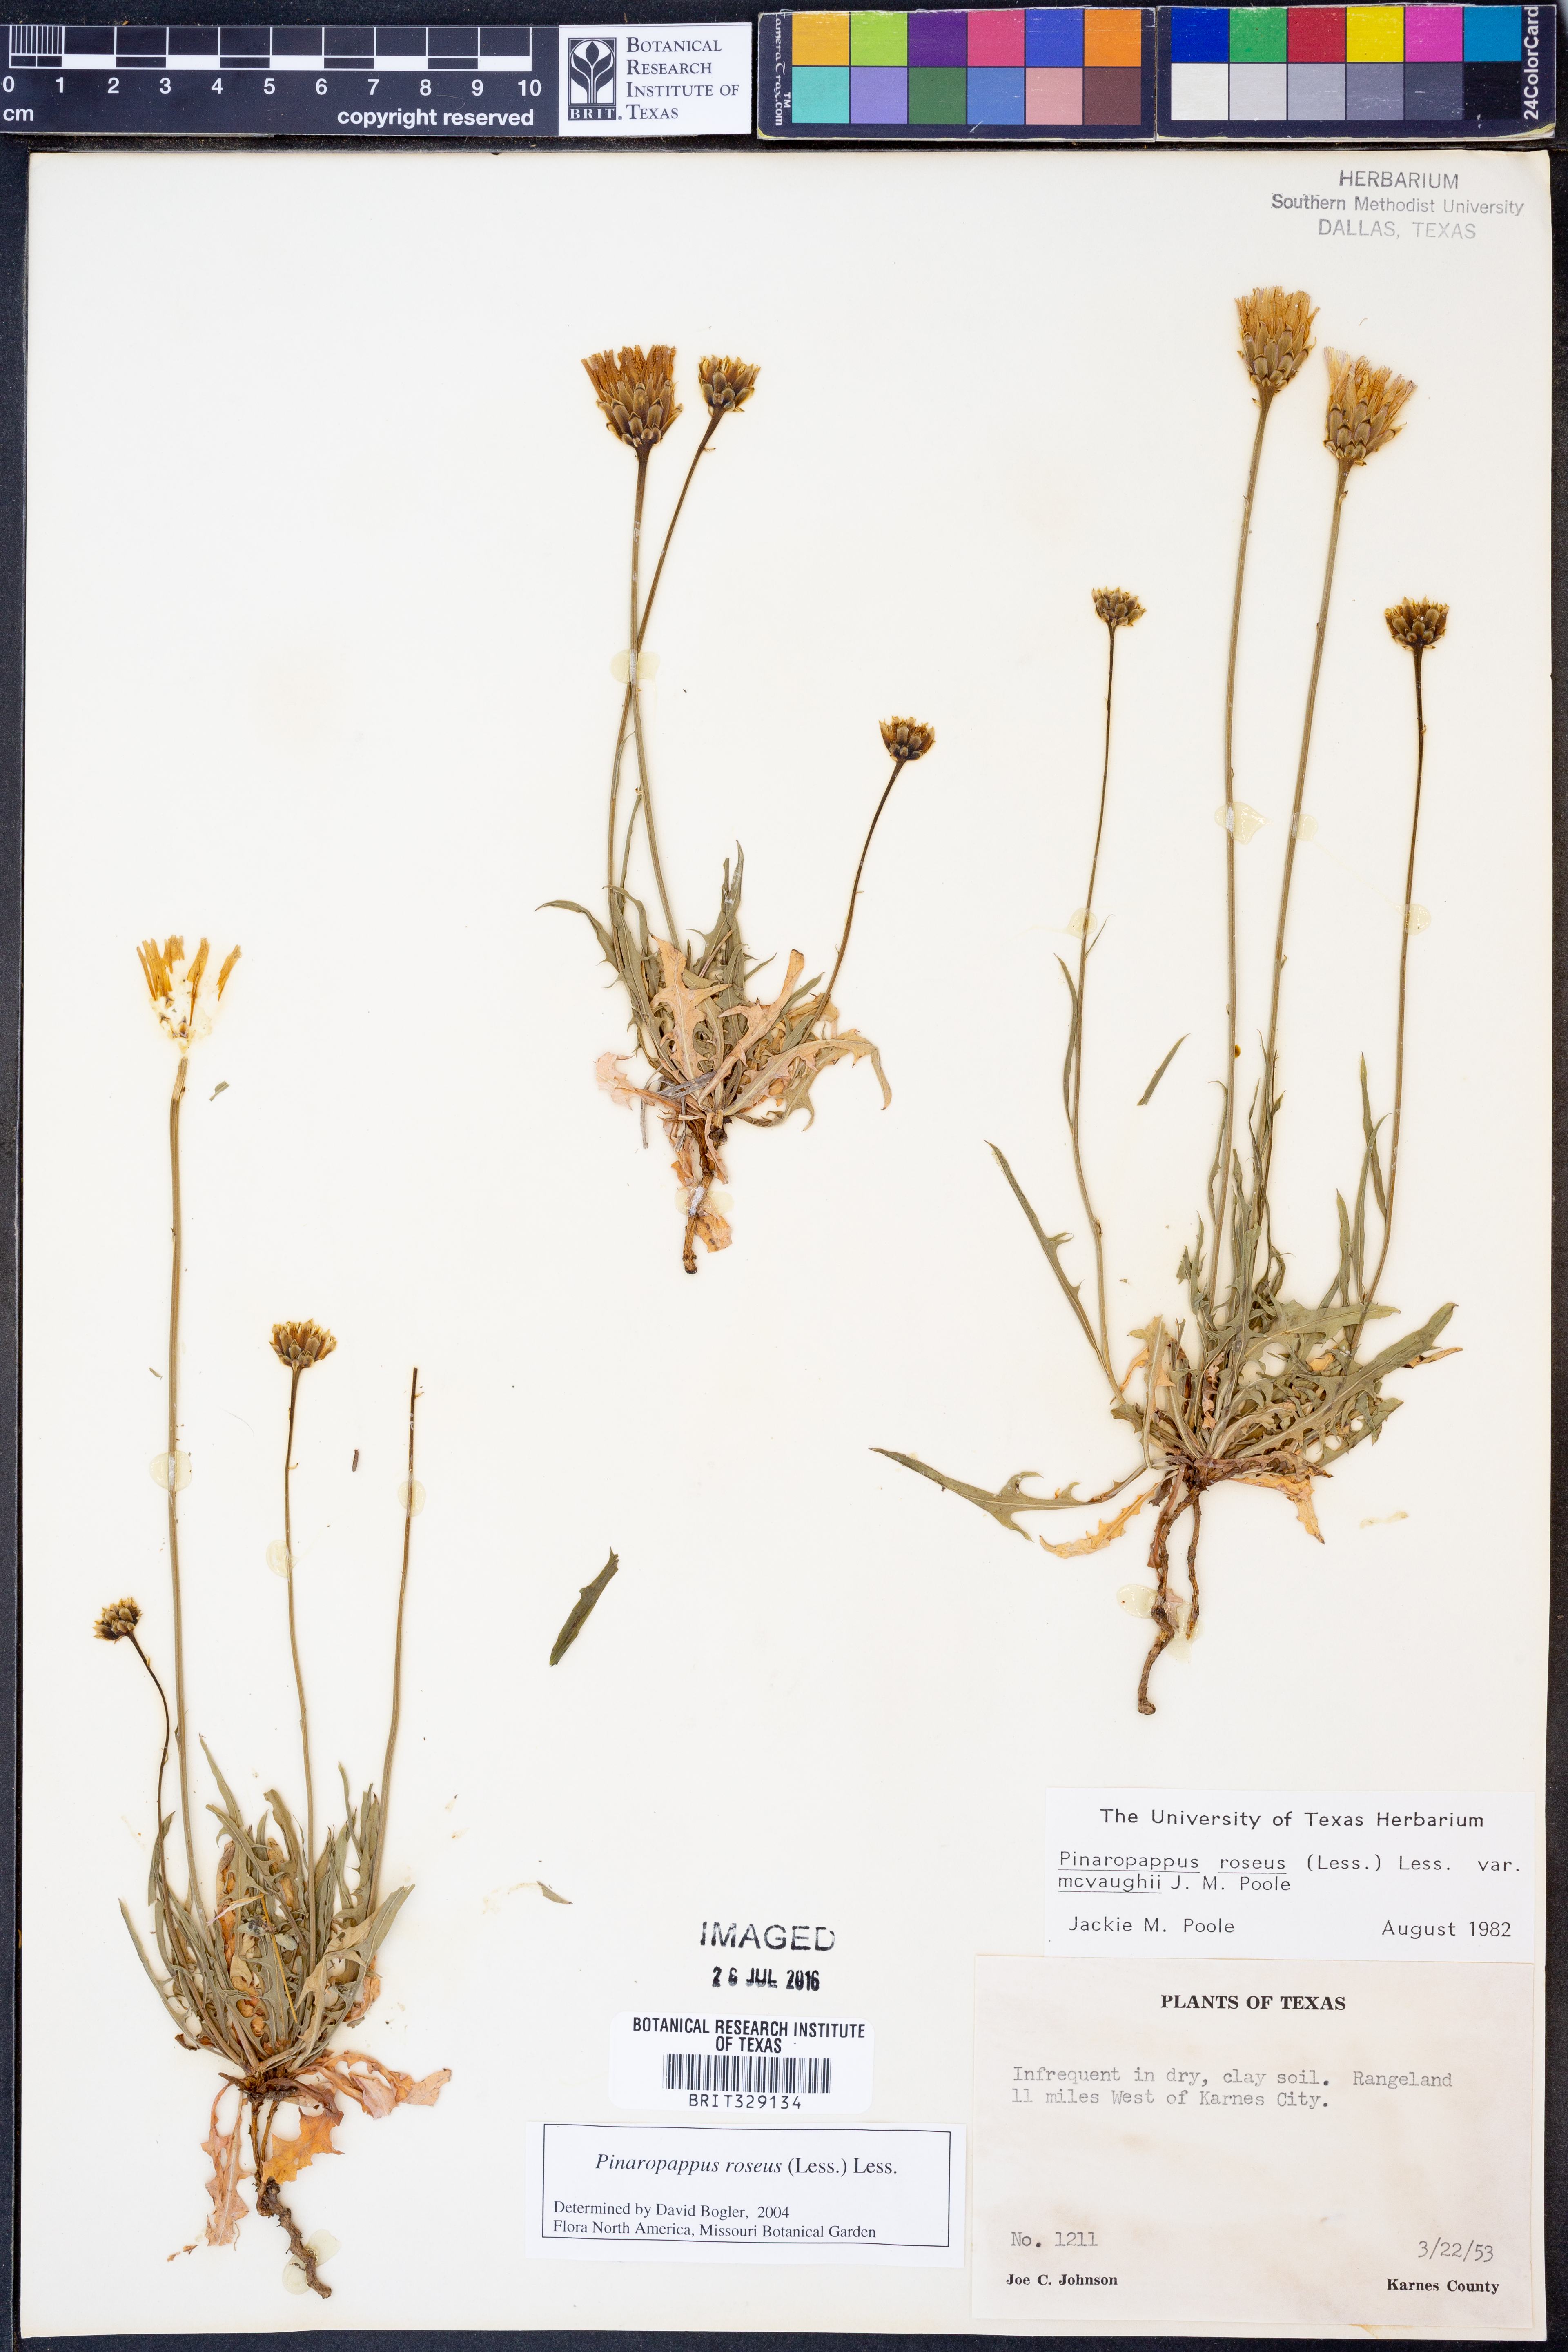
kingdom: Plantae
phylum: Tracheophyta
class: Magnoliopsida
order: Asterales
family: Asteraceae
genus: Pinaropappus
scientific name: Pinaropappus roseus
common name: Rock-lettuce
